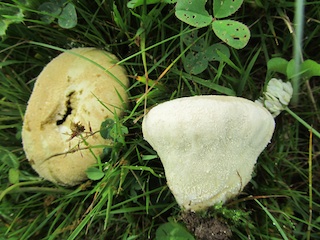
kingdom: Fungi
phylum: Basidiomycota
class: Agaricomycetes
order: Agaricales
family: Lycoperdaceae
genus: Lycoperdon
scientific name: Lycoperdon pratense
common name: flad støvbold
